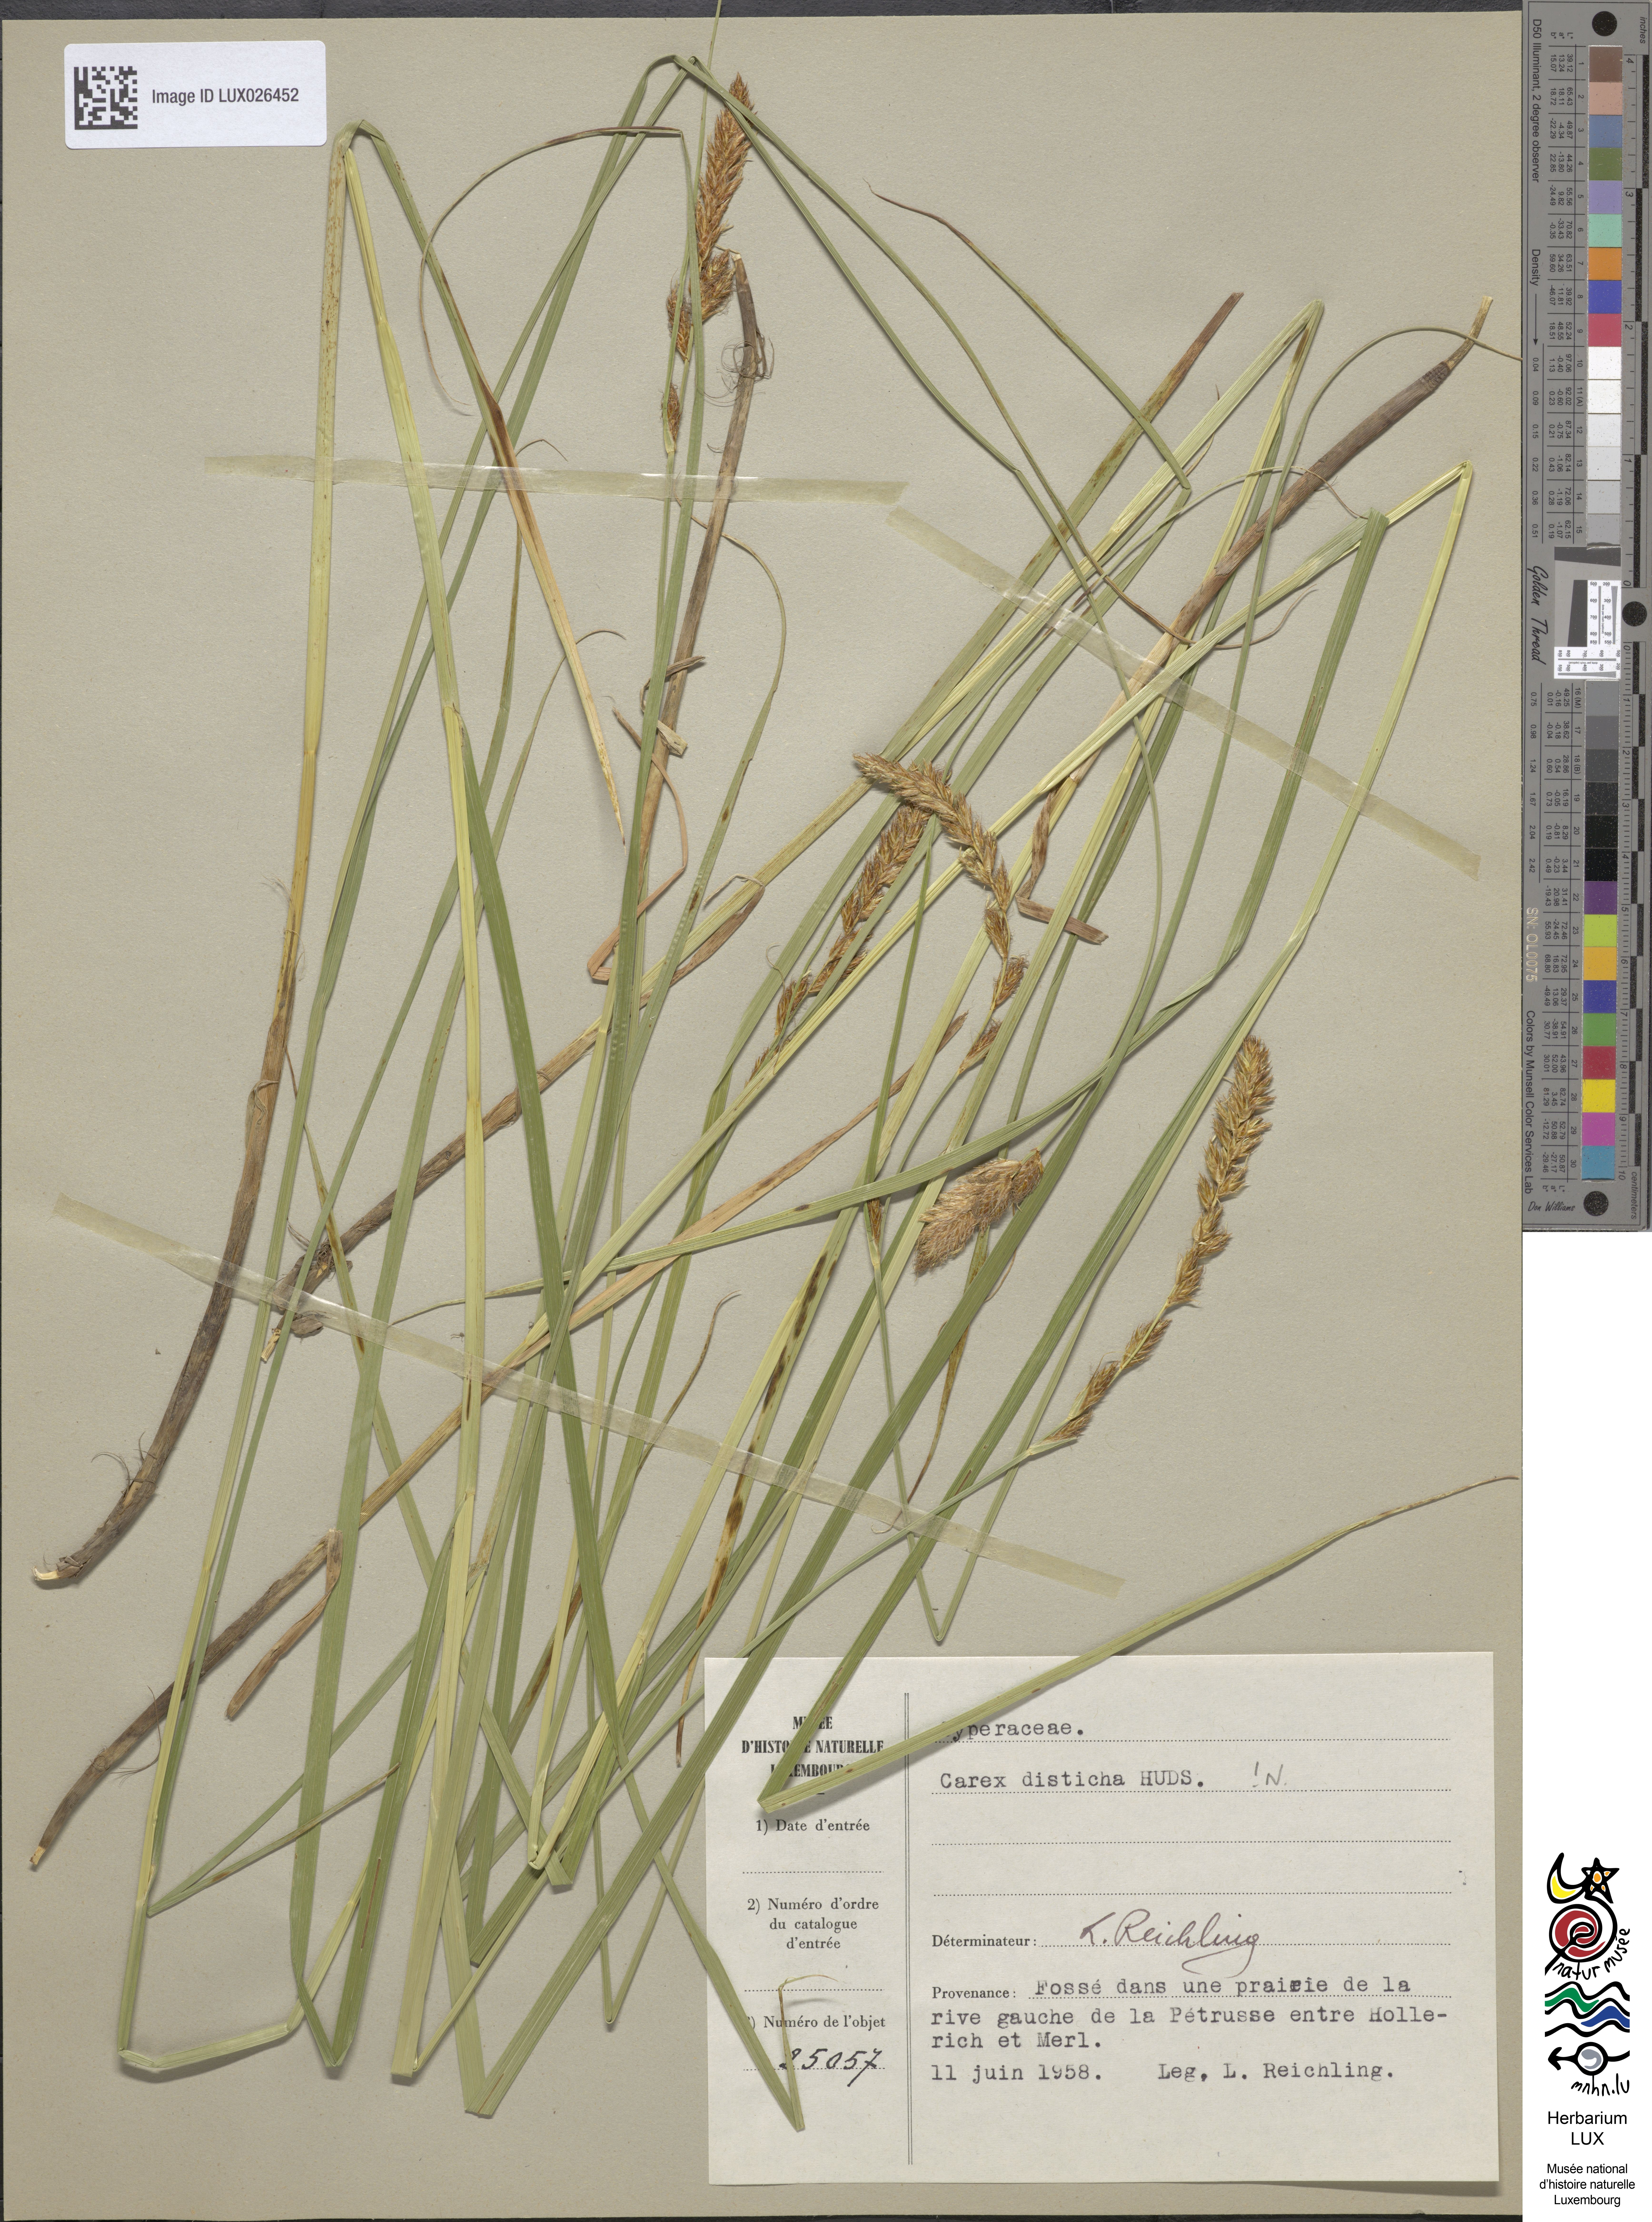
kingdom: Plantae
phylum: Tracheophyta
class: Liliopsida
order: Poales
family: Cyperaceae
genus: Carex
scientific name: Carex disticha
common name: Brown sedge
